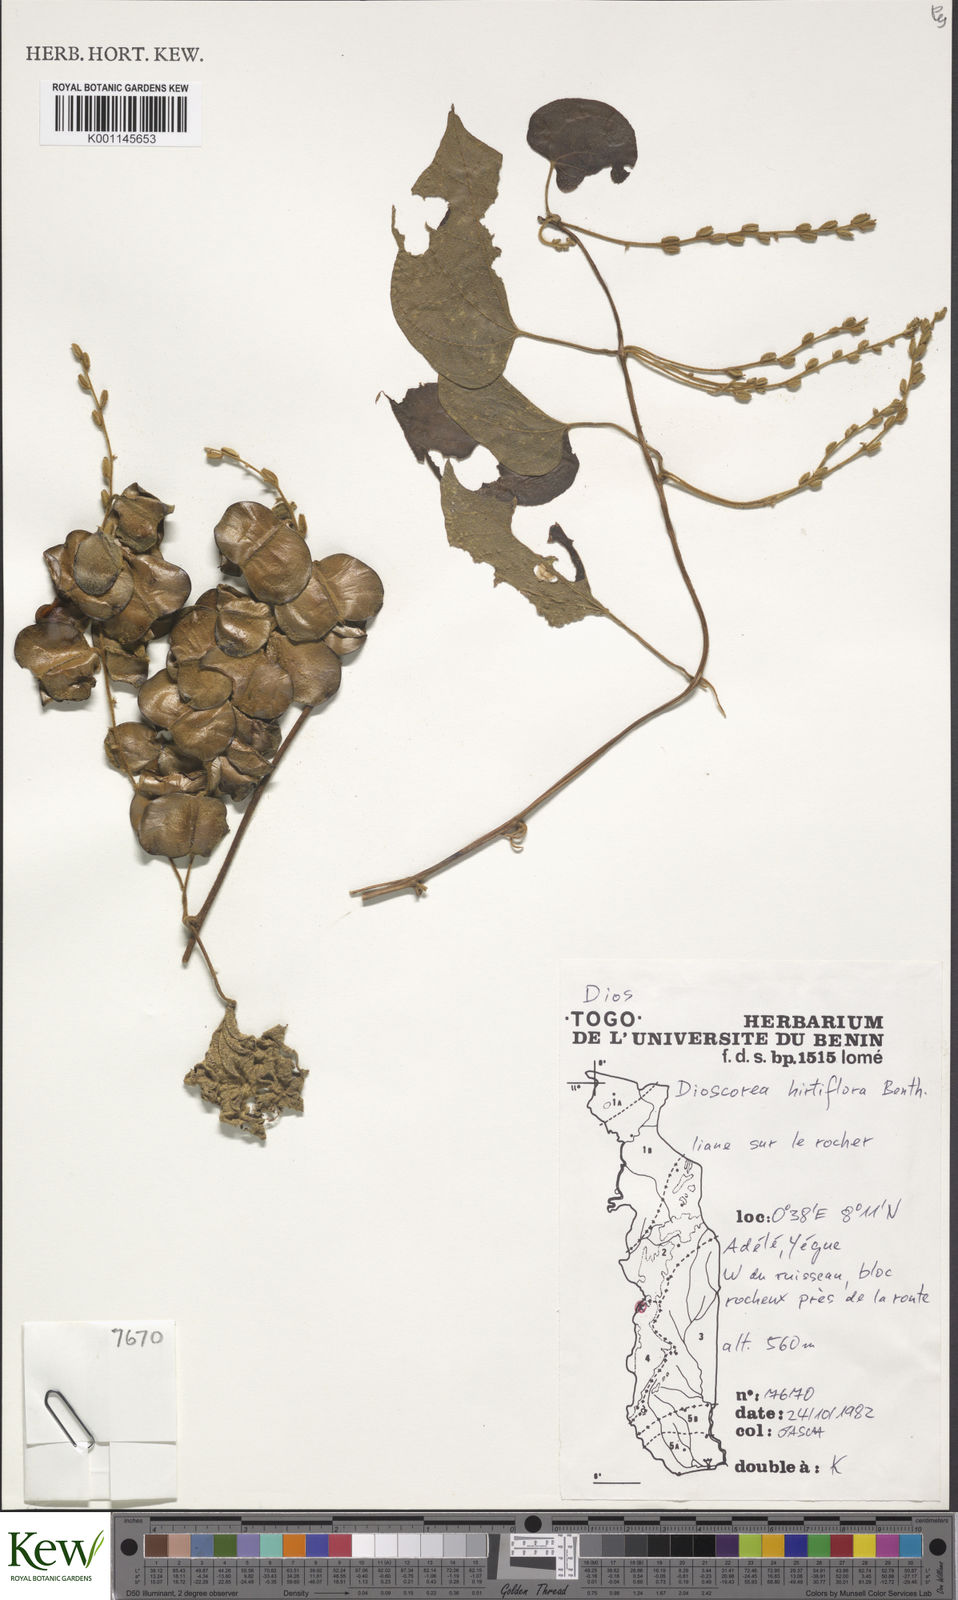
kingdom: Plantae
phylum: Tracheophyta
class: Liliopsida
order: Dioscoreales
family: Dioscoreaceae
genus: Dioscorea
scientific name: Dioscorea hirtiflora
